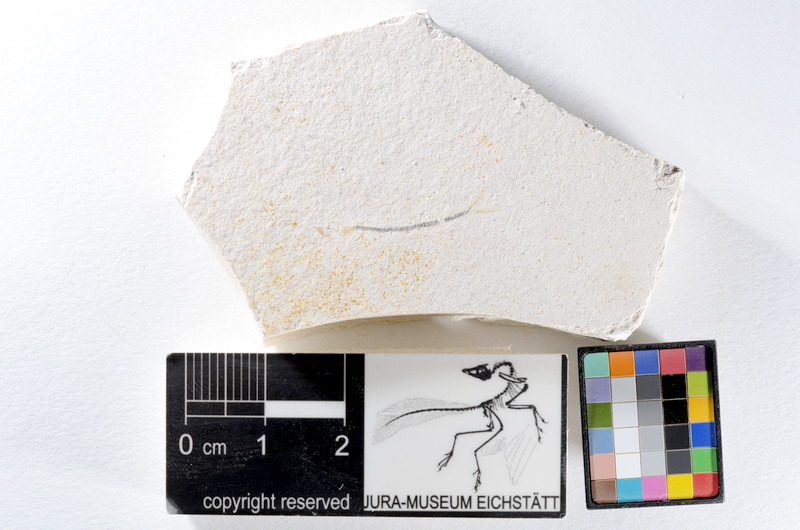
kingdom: Animalia
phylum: Chordata
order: Salmoniformes
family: Orthogonikleithridae
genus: Orthogonikleithrus
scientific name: Orthogonikleithrus hoelli
